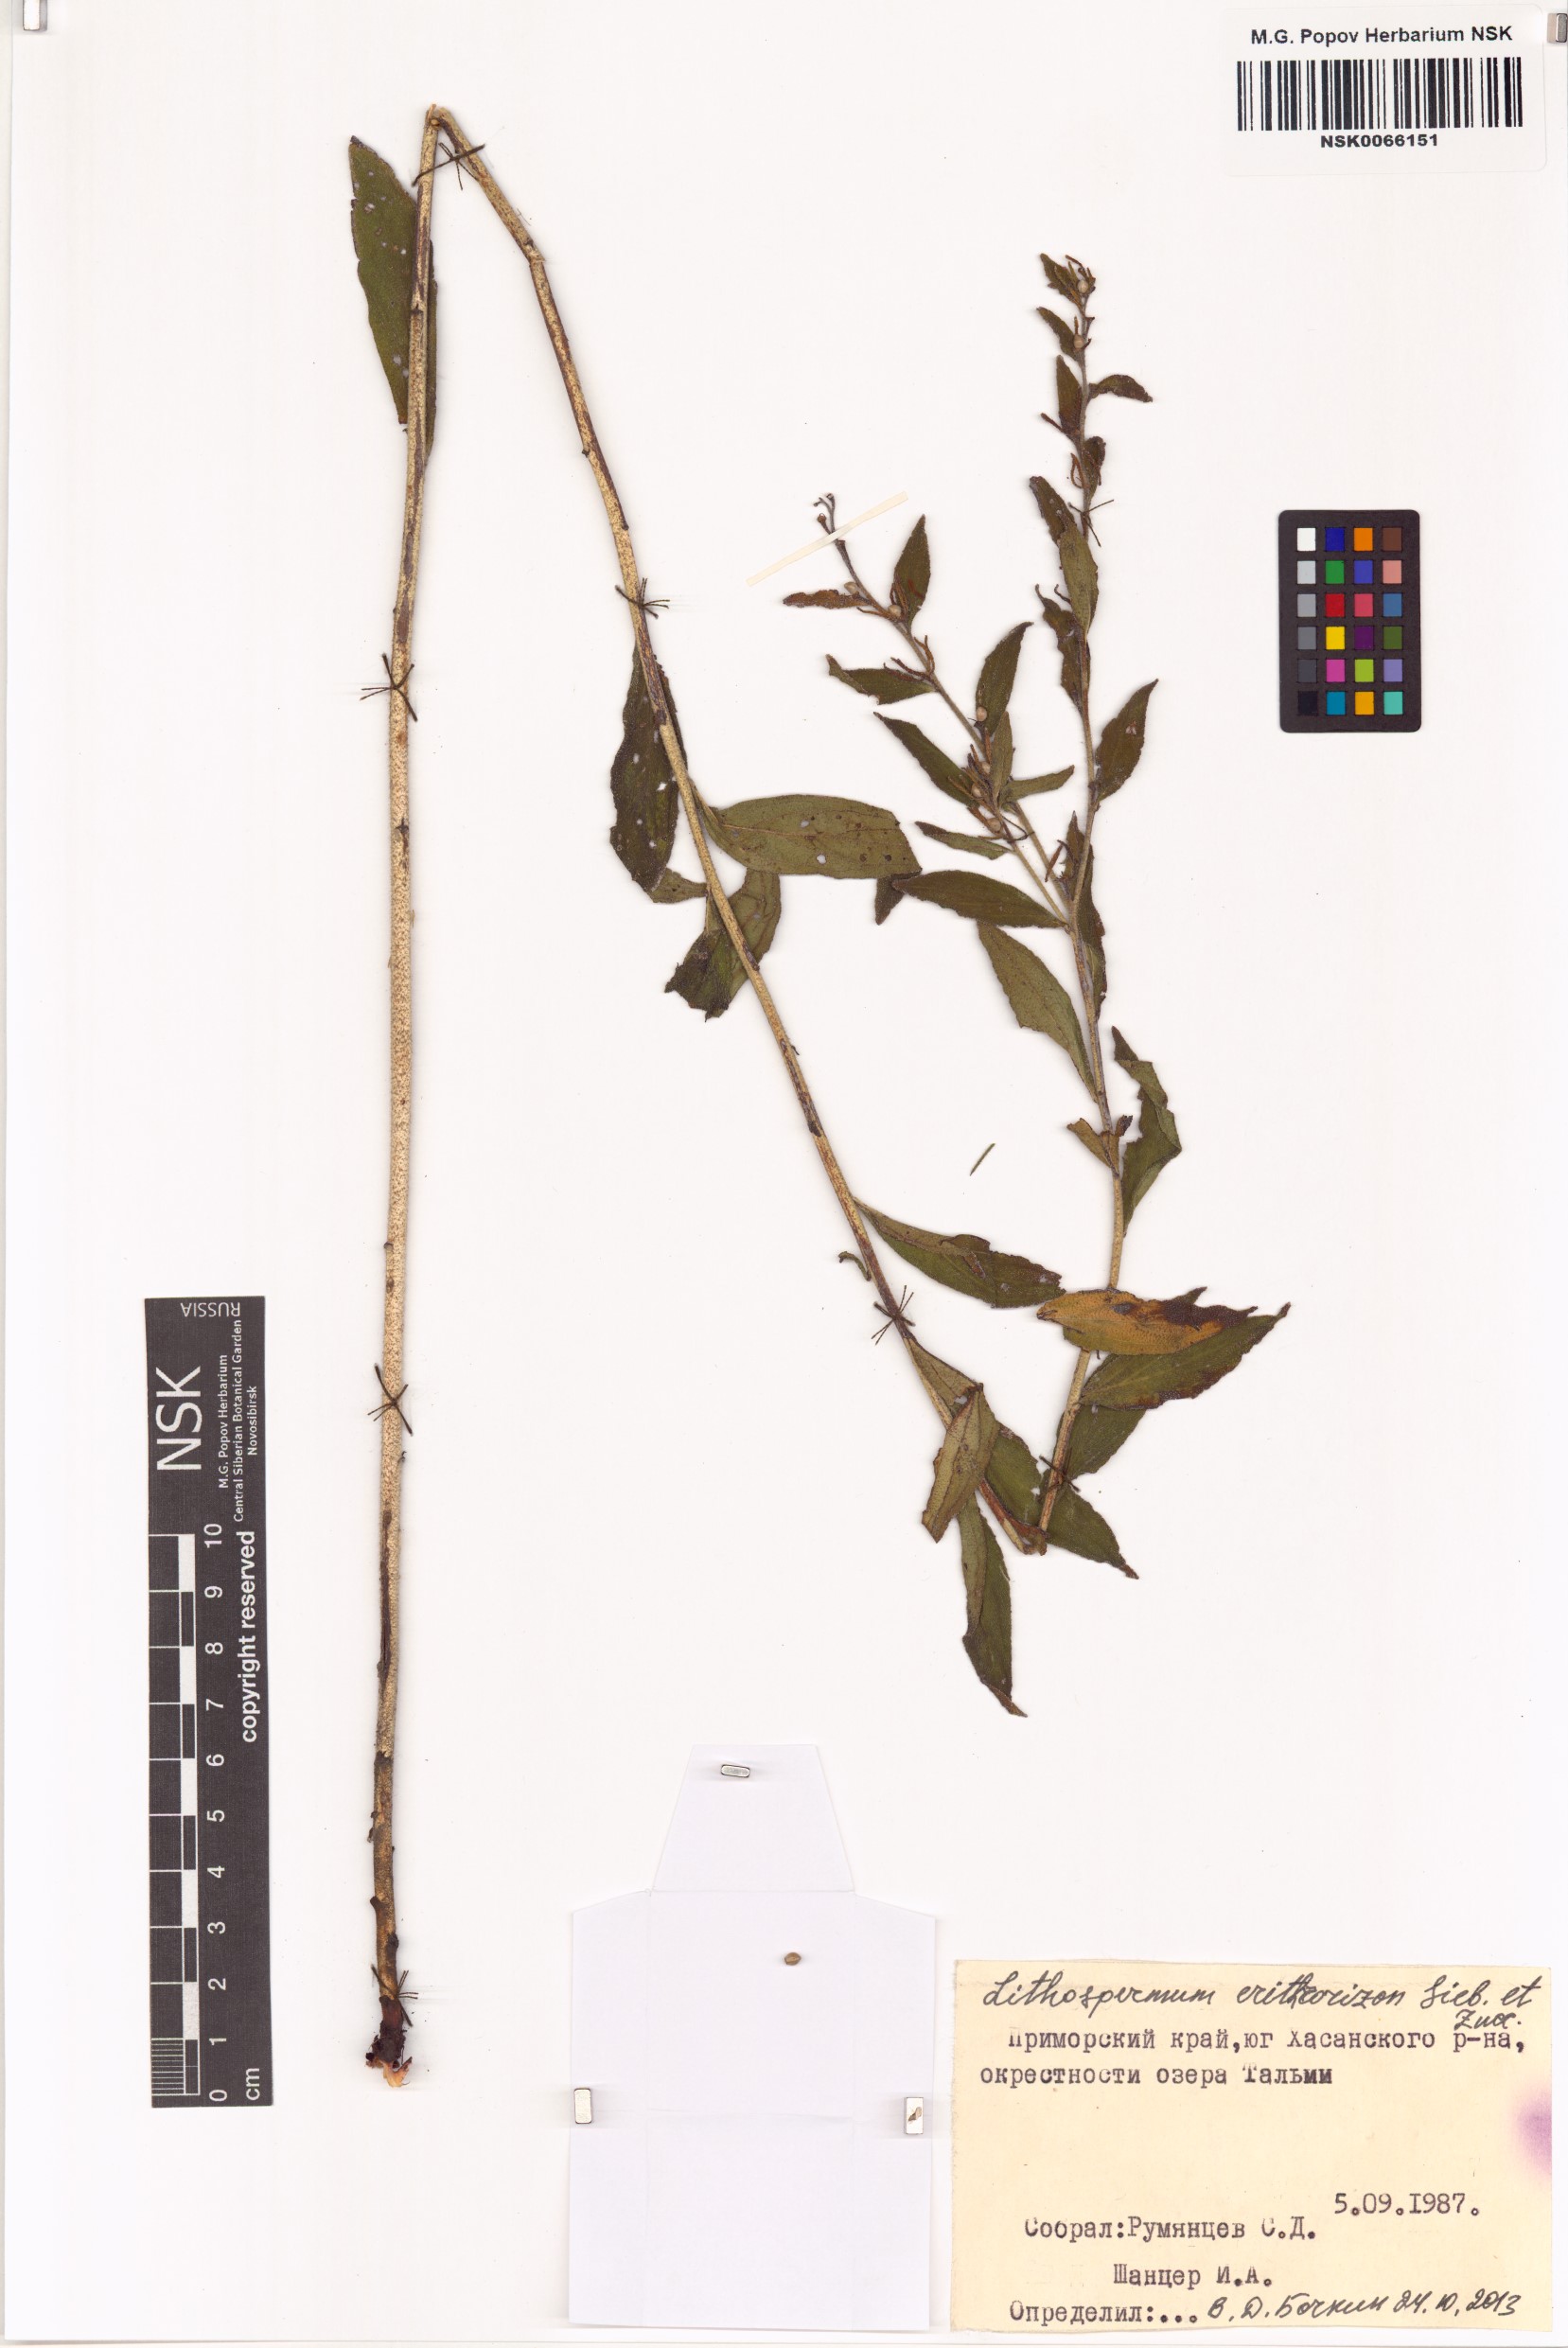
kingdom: Plantae
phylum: Tracheophyta
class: Magnoliopsida
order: Boraginales
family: Boraginaceae
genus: Lithospermum
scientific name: Lithospermum erythrorhizon
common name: Purple gromwell
